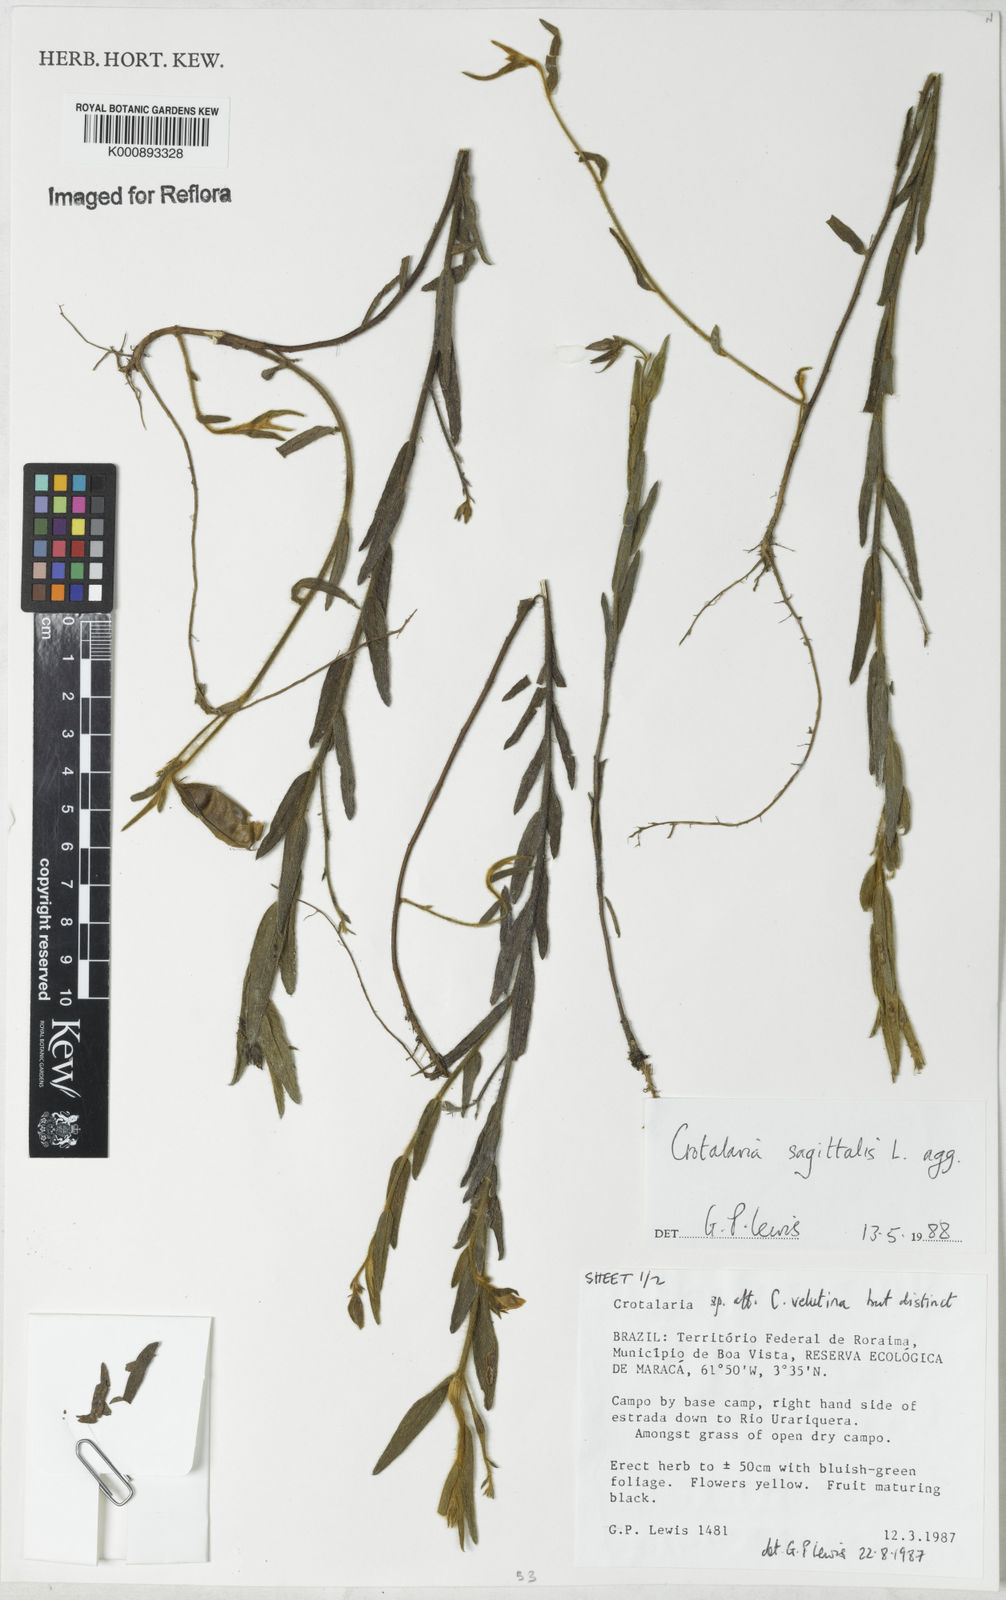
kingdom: Plantae
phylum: Tracheophyta
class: Magnoliopsida
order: Fabales
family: Fabaceae
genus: Crotalaria
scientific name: Crotalaria sagittalis
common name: Arrowhead rattlebox
